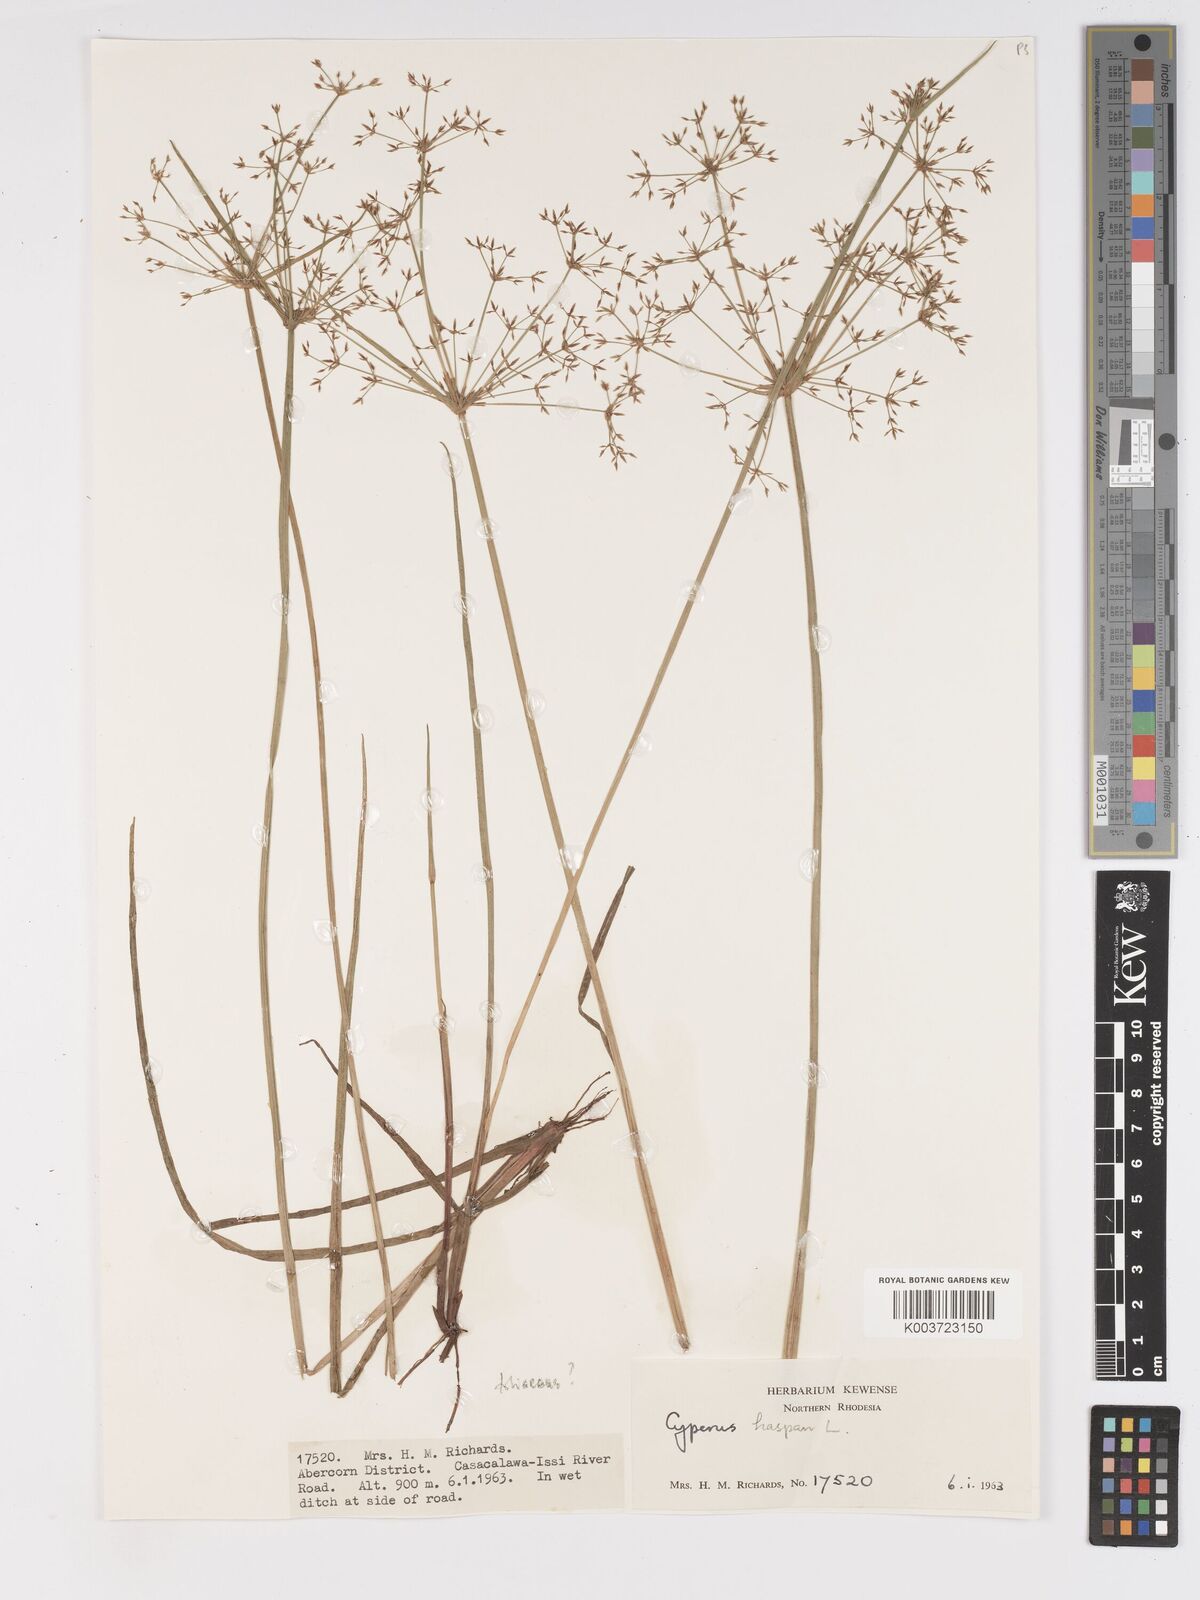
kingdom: Plantae
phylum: Tracheophyta
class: Liliopsida
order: Poales
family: Cyperaceae
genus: Cyperus
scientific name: Cyperus haspan
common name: Haspan flatsedge
